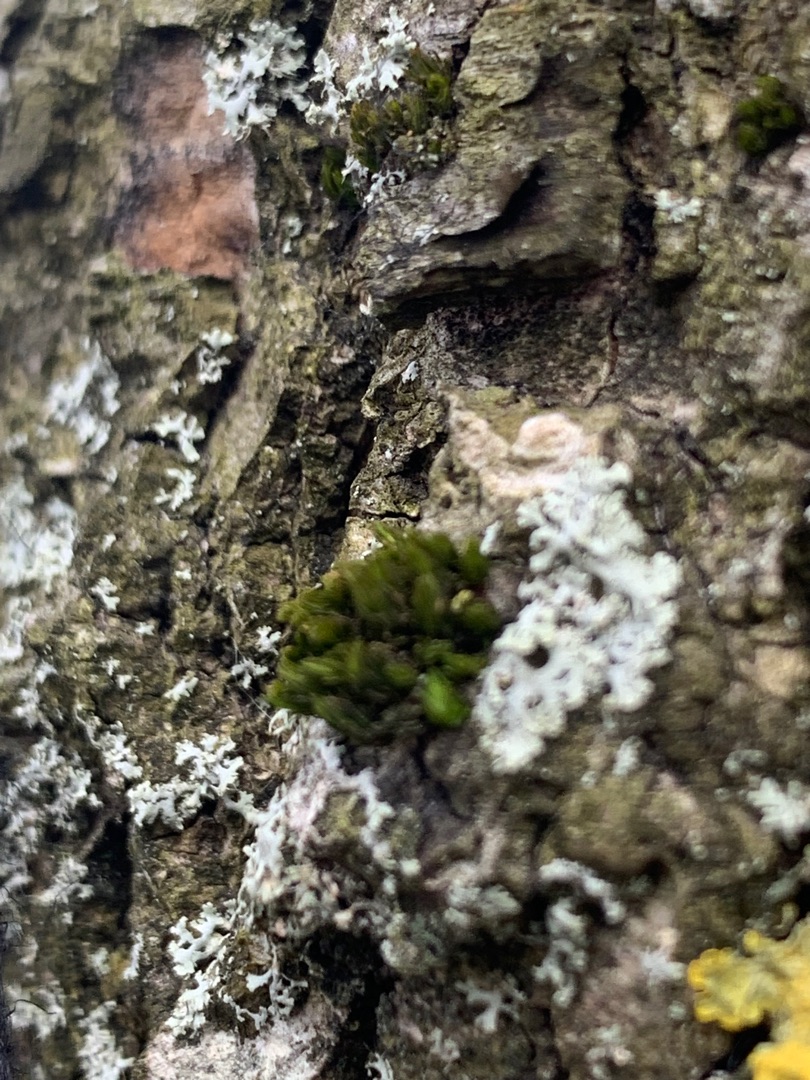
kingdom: Plantae
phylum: Bryophyta
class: Bryopsida
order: Orthotrichales
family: Orthotrichaceae
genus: Lewinskya
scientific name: Lewinskya affinis
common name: Almindelig furehætte
